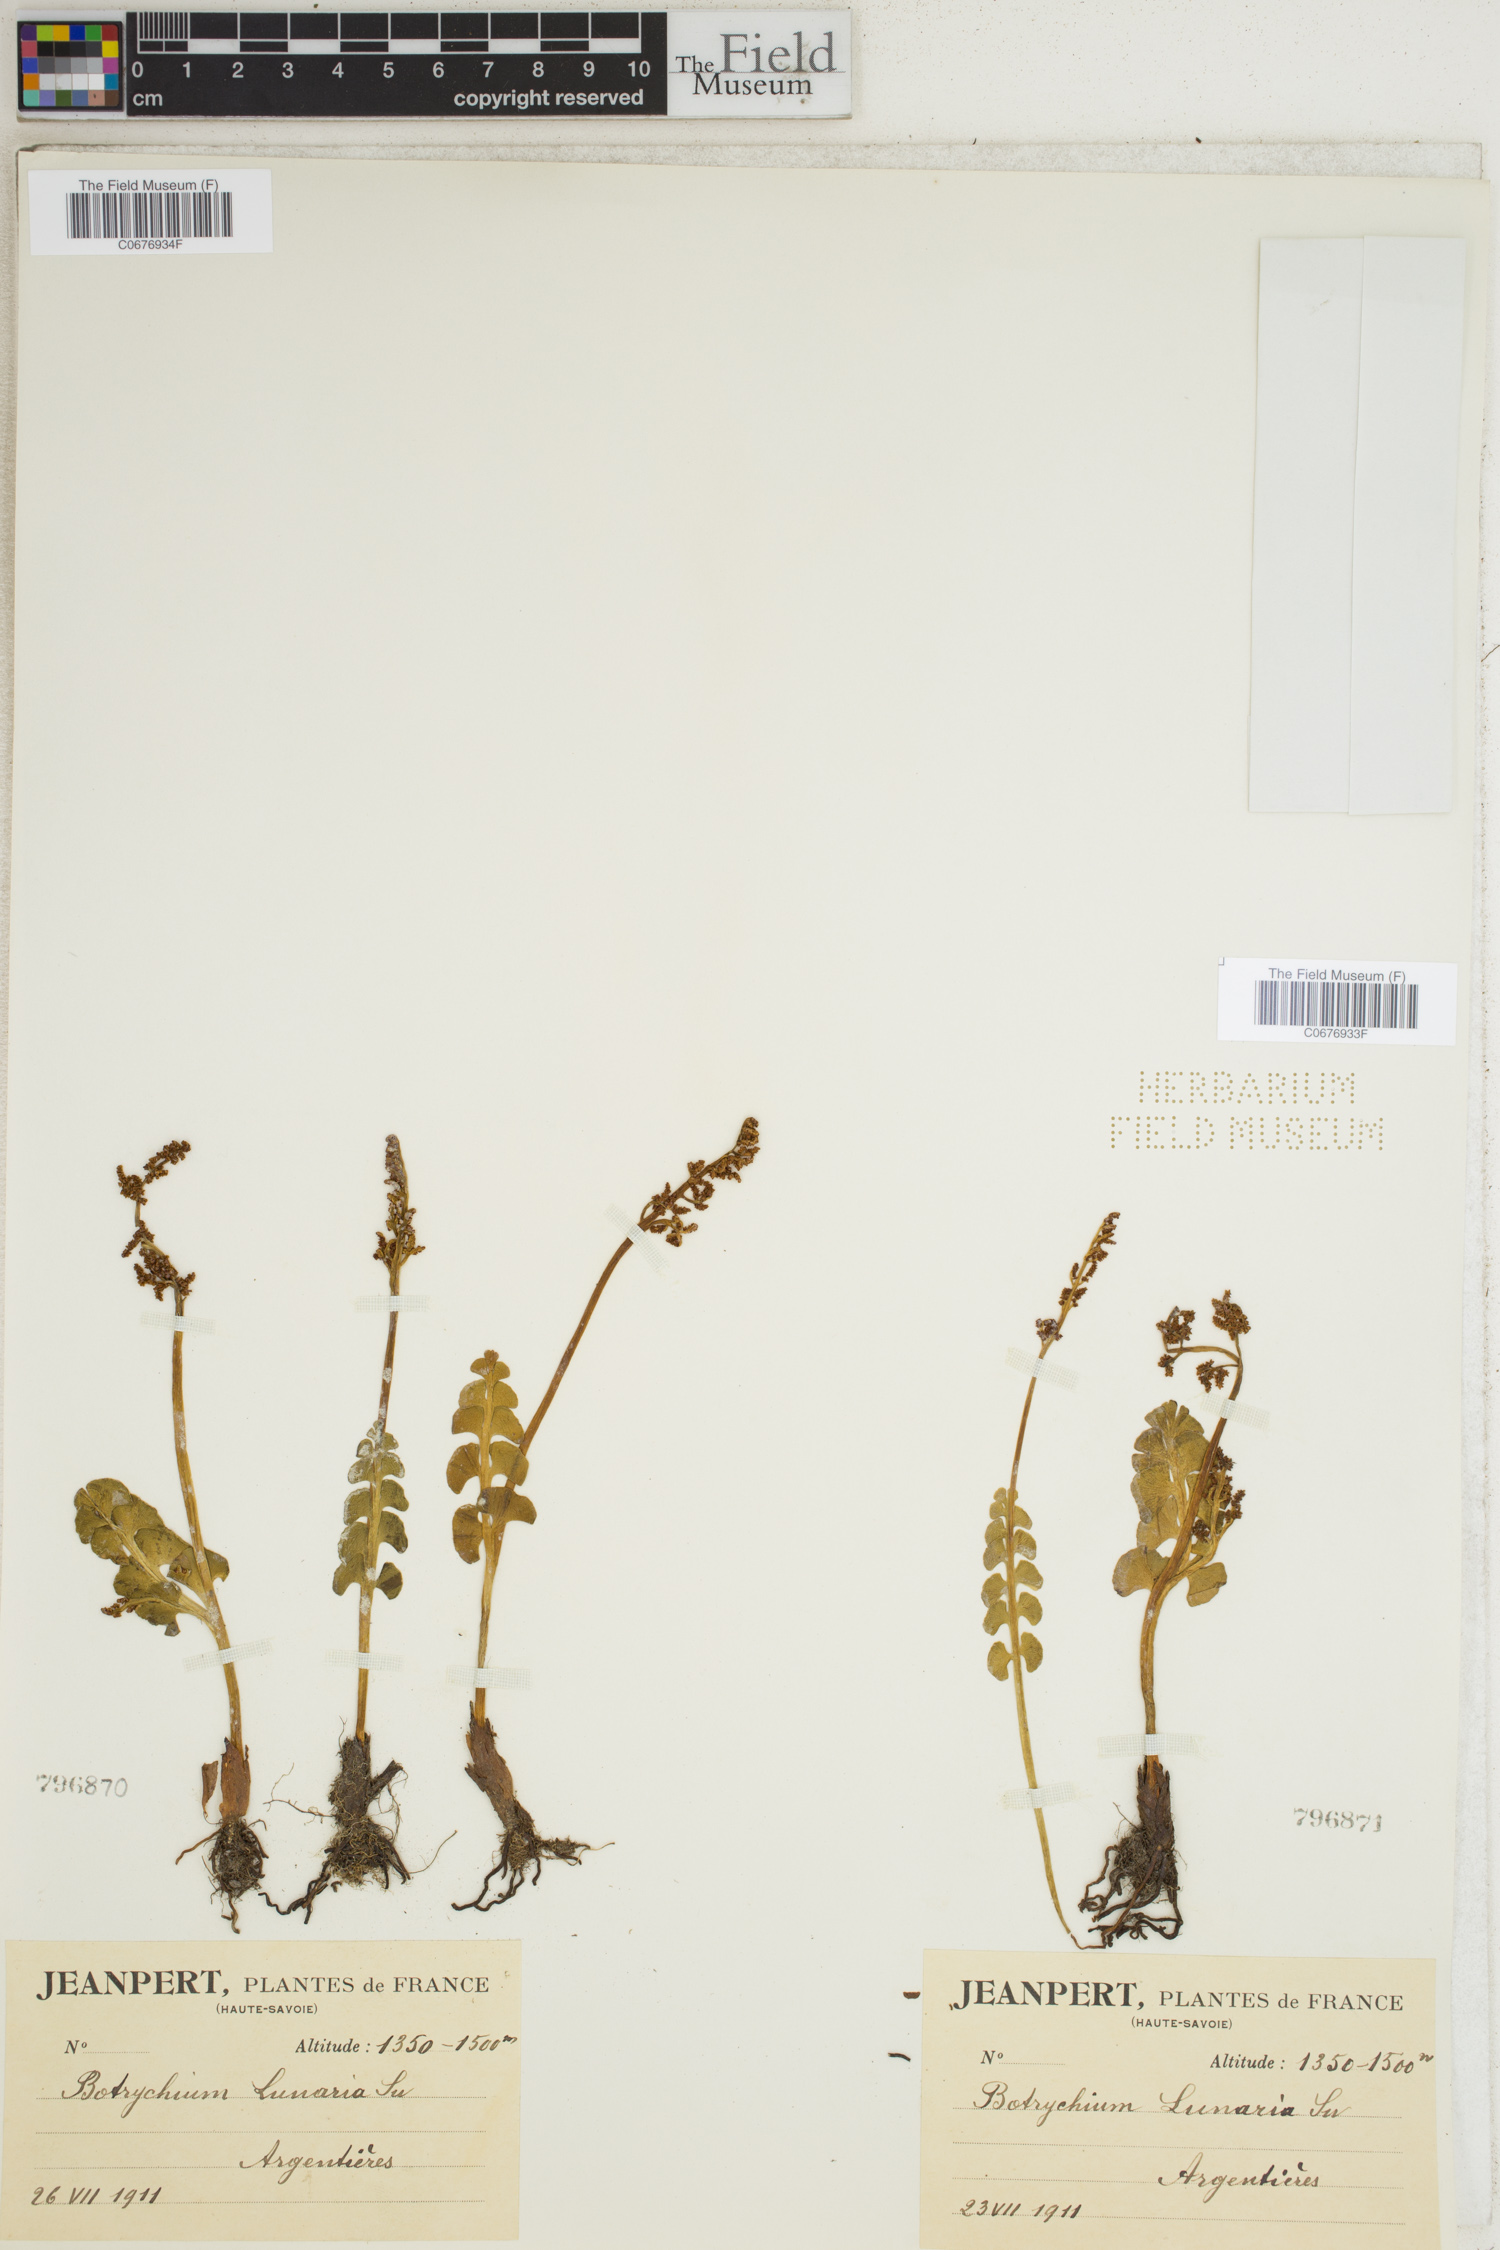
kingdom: Plantae
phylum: Tracheophyta
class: Polypodiopsida
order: Ophioglossales
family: Ophioglossaceae
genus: Botrychium
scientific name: Botrychium lunaria
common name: Moonwort
